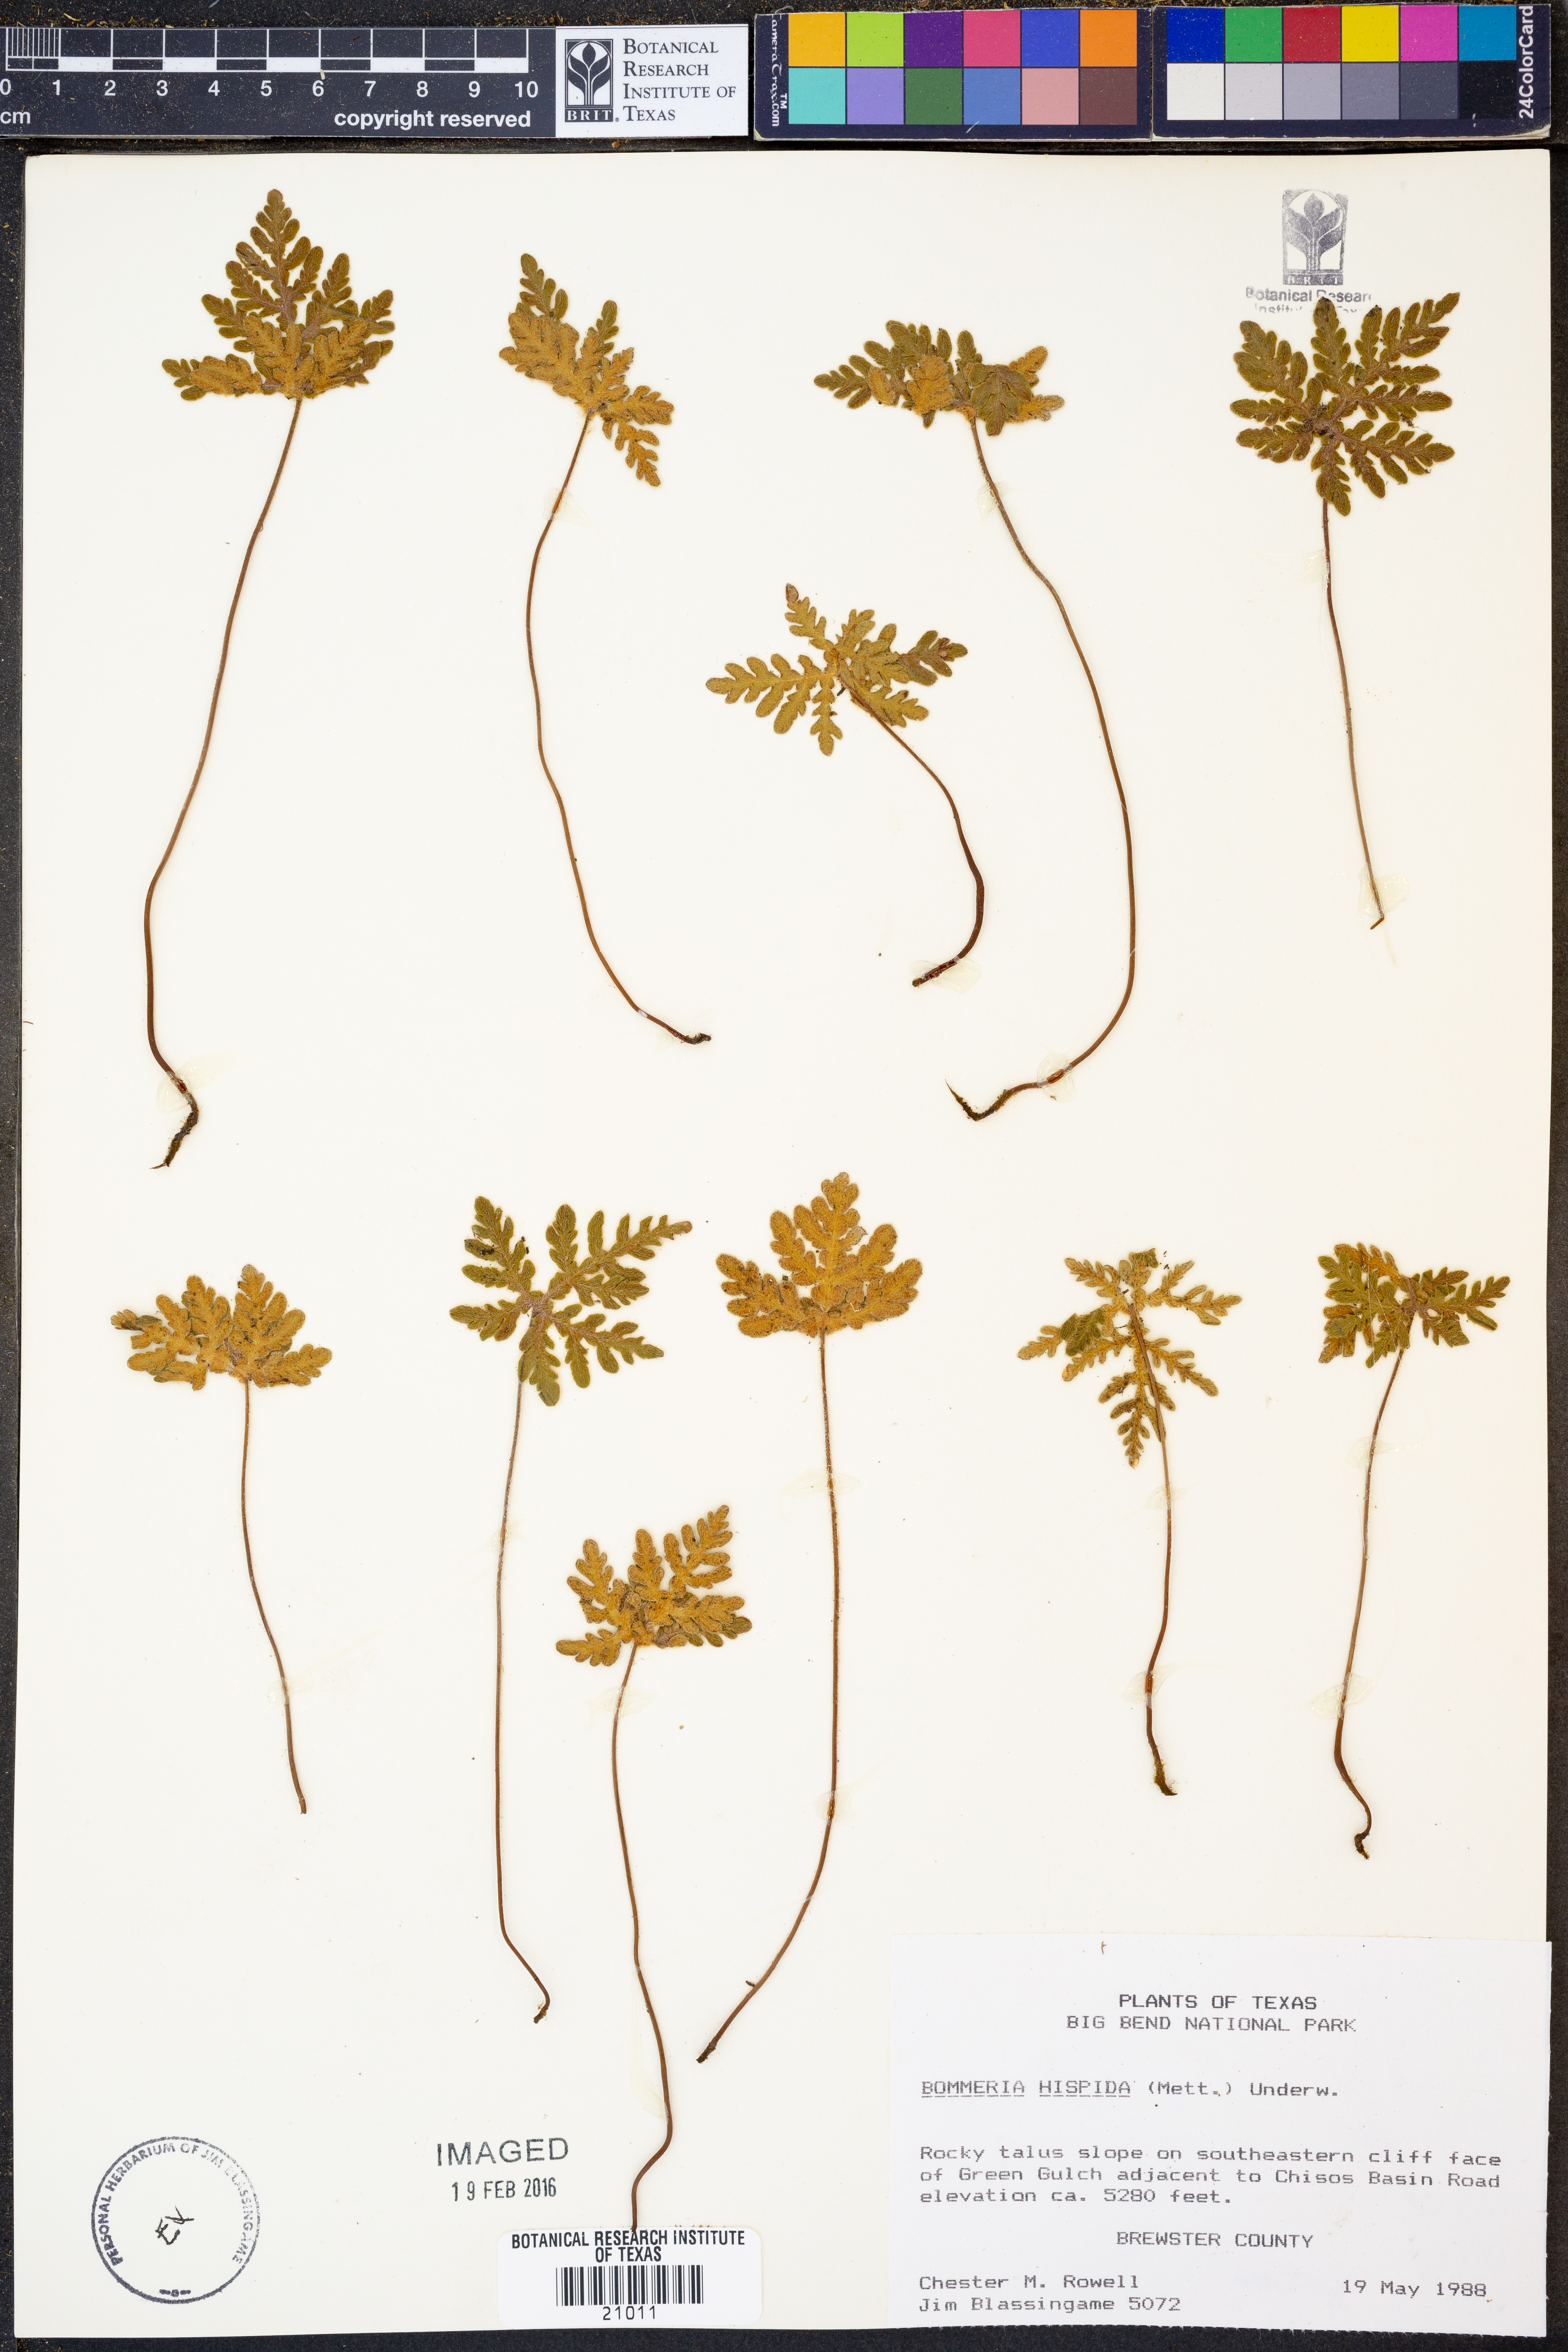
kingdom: Plantae
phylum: Tracheophyta
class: Polypodiopsida
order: Polypodiales
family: Pteridaceae
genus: Bommeria
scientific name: Bommeria hispida
